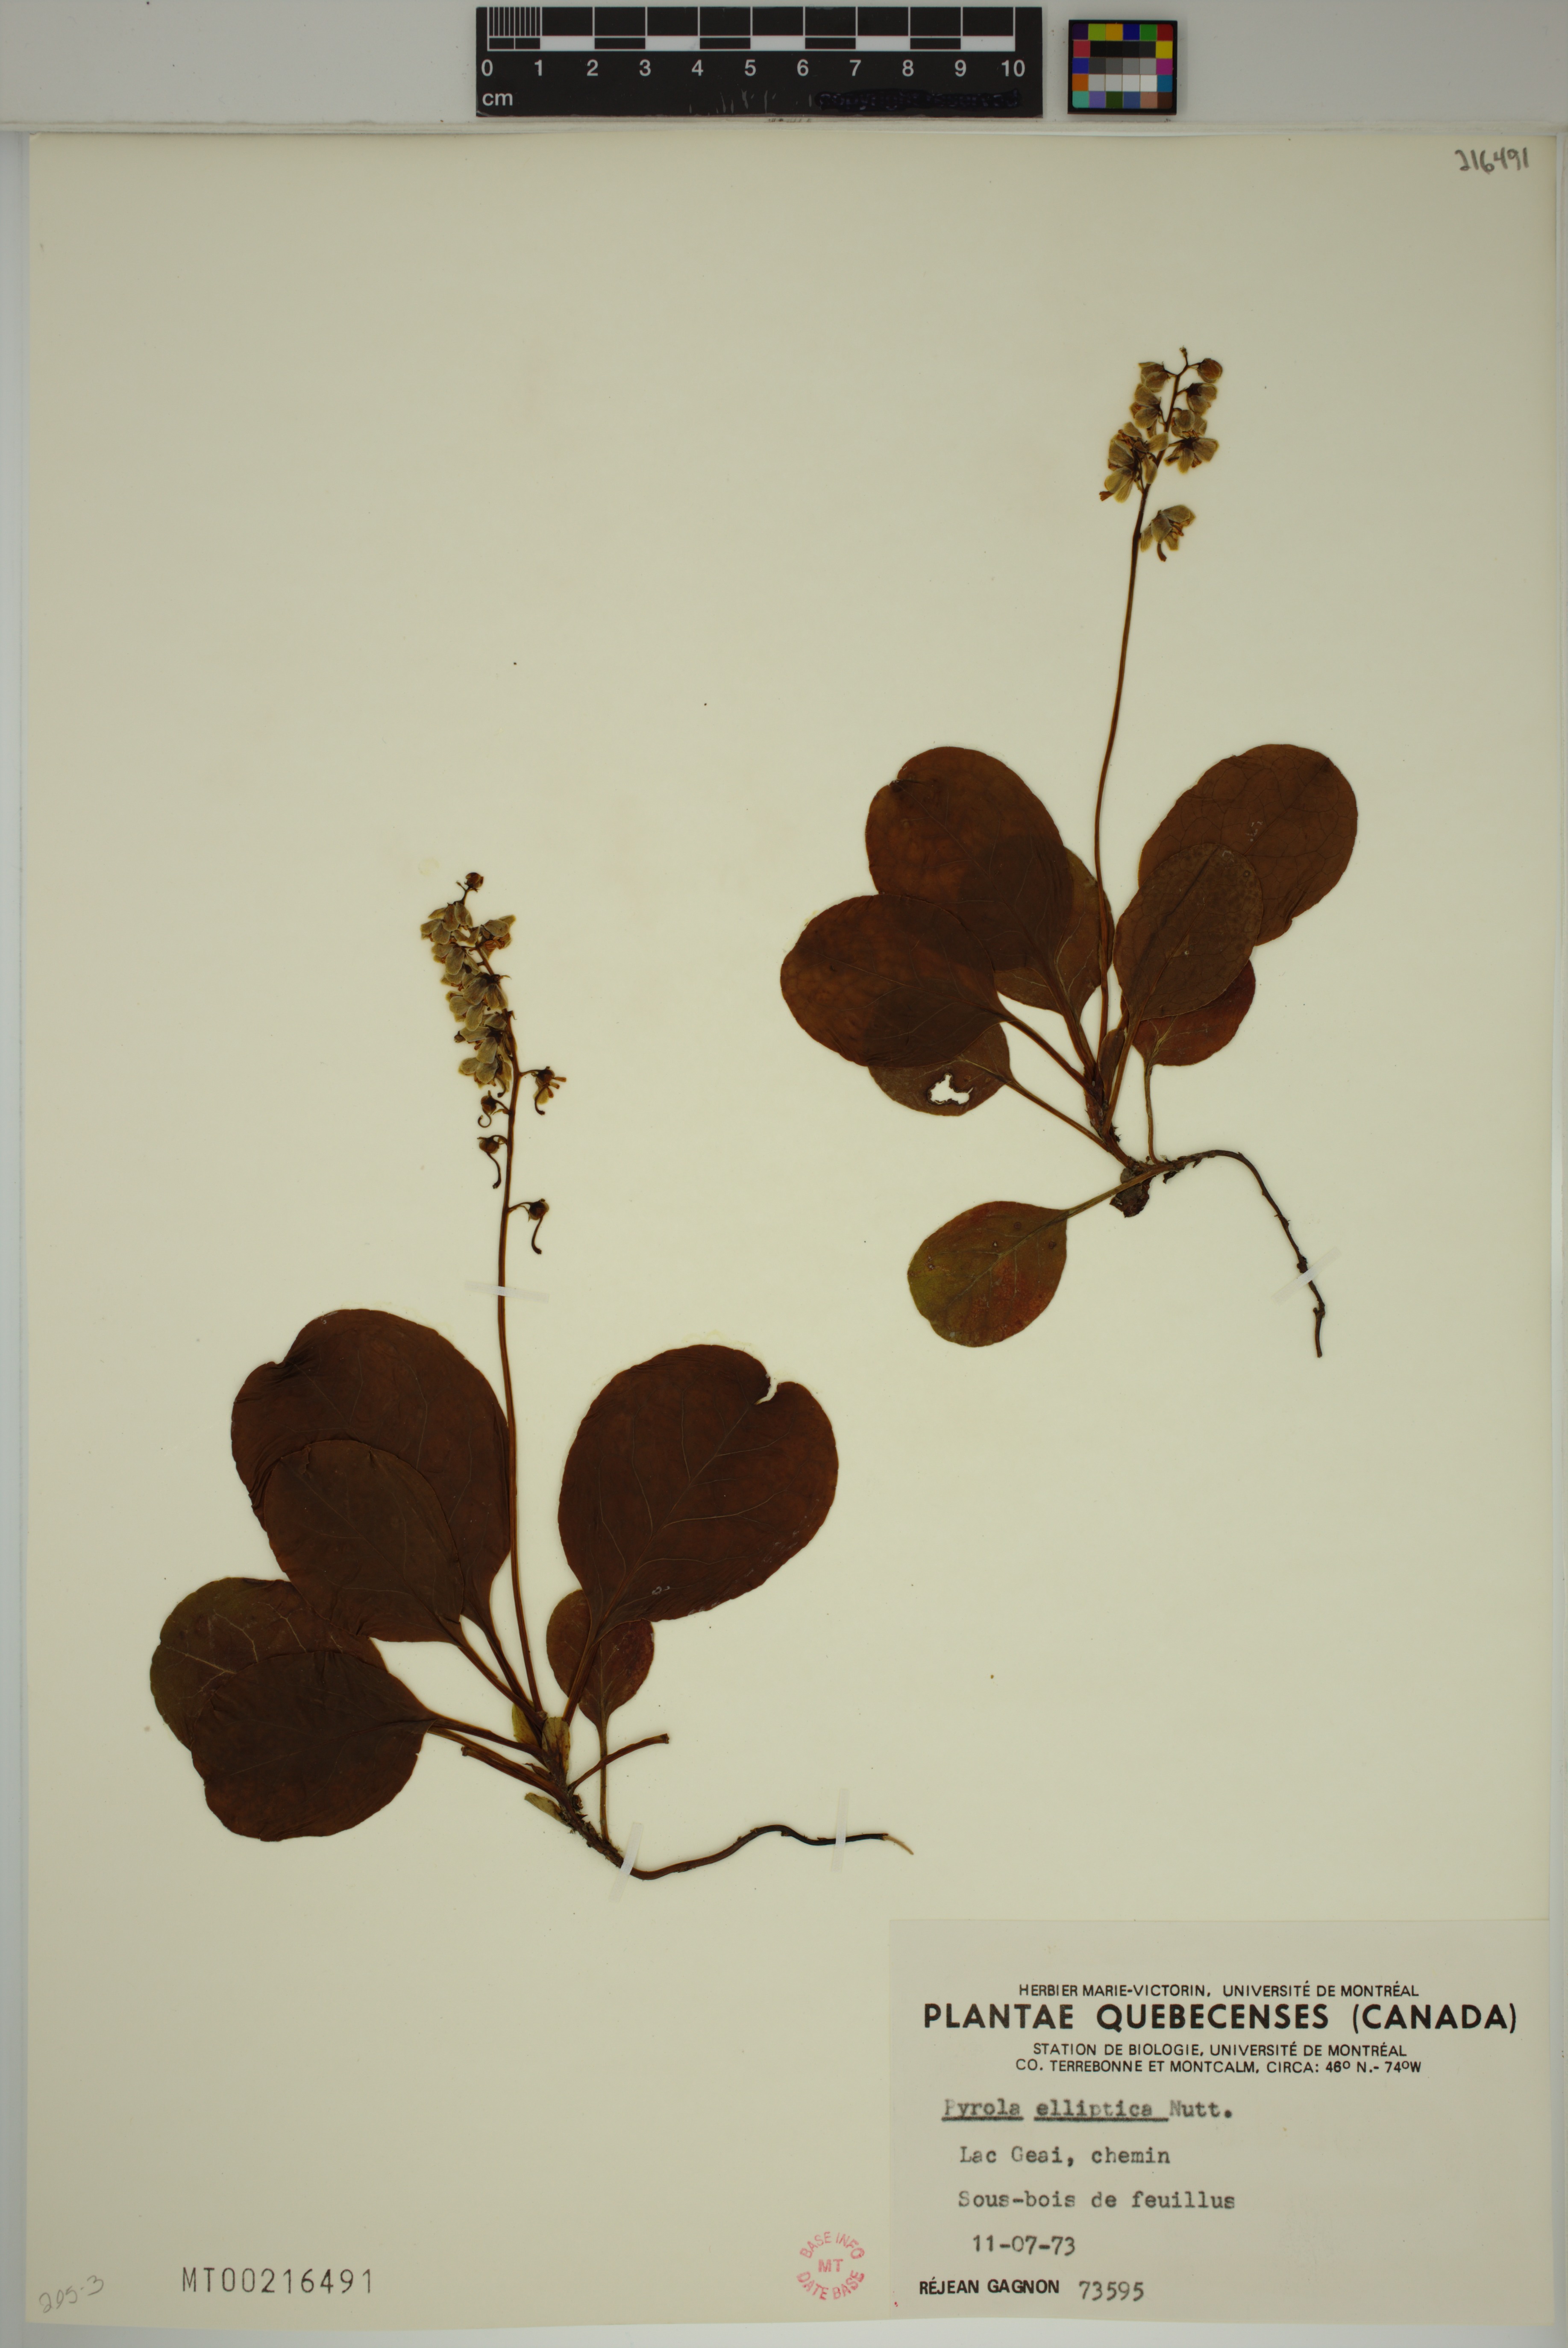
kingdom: Plantae
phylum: Tracheophyta
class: Magnoliopsida
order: Ericales
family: Ericaceae
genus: Pyrola
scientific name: Pyrola elliptica
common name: Shinleaf
